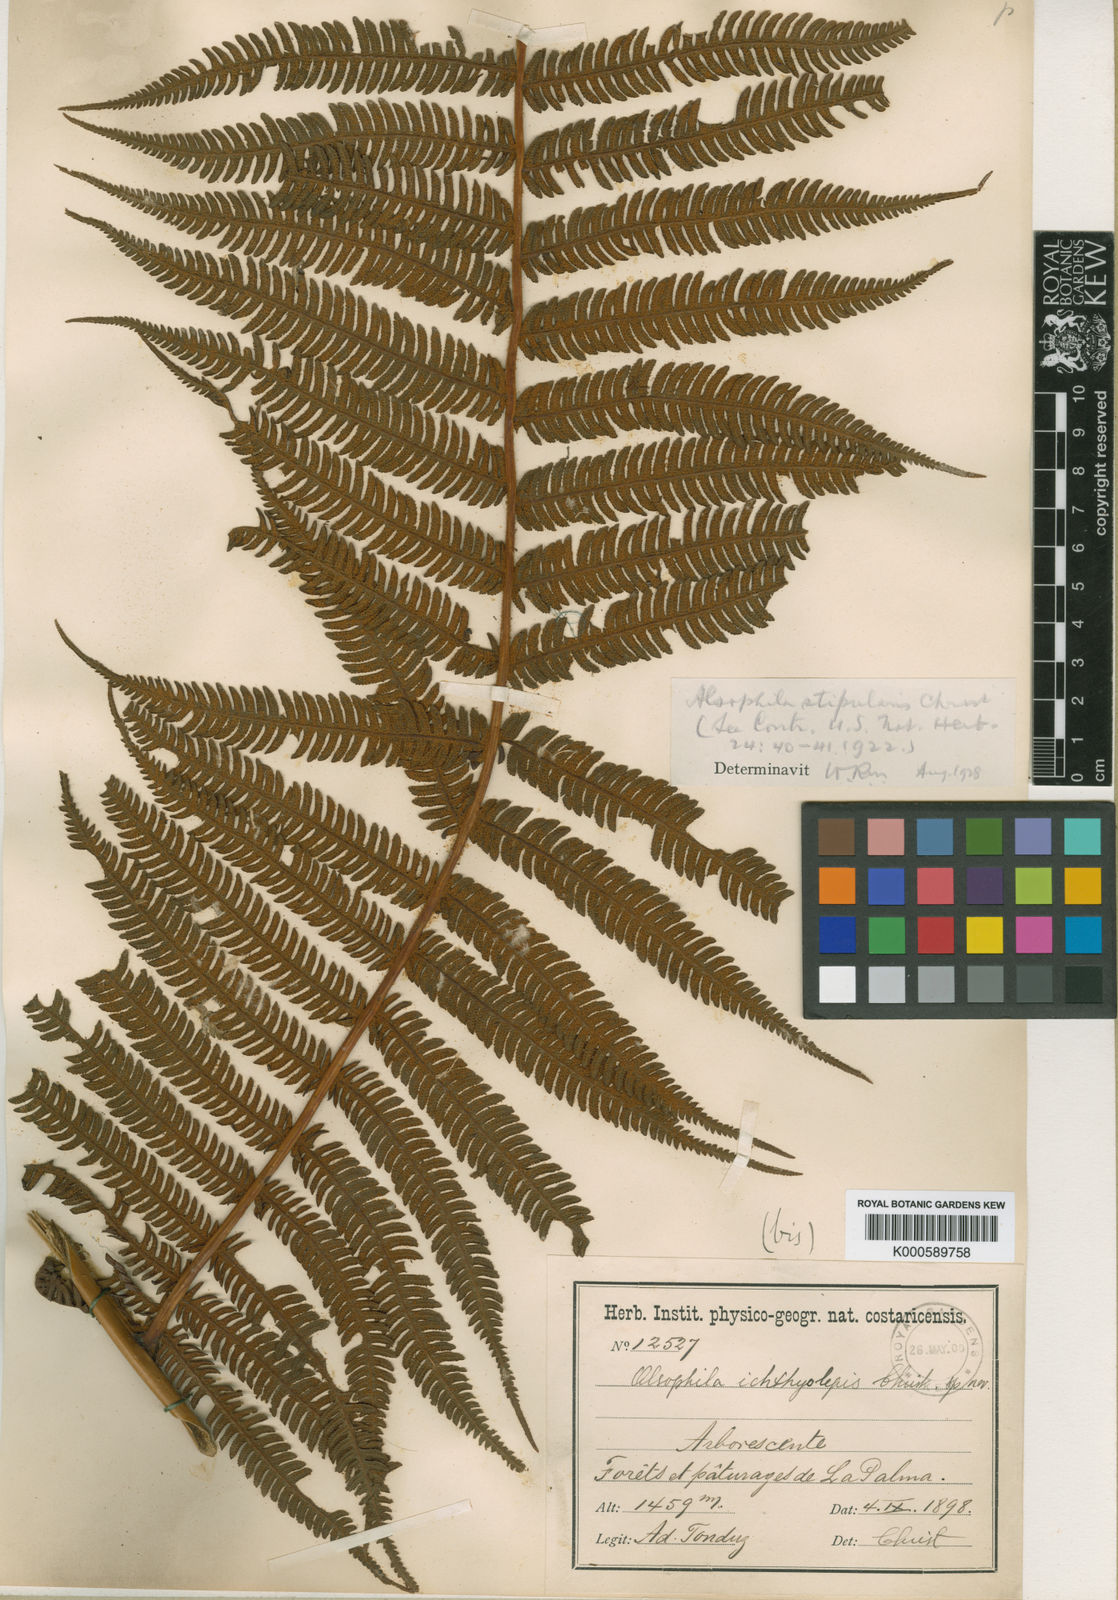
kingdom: Plantae
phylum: Tracheophyta
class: Polypodiopsida
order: Cyatheales
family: Cyatheaceae
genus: Cyathea
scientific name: Cyathea bicrenata
